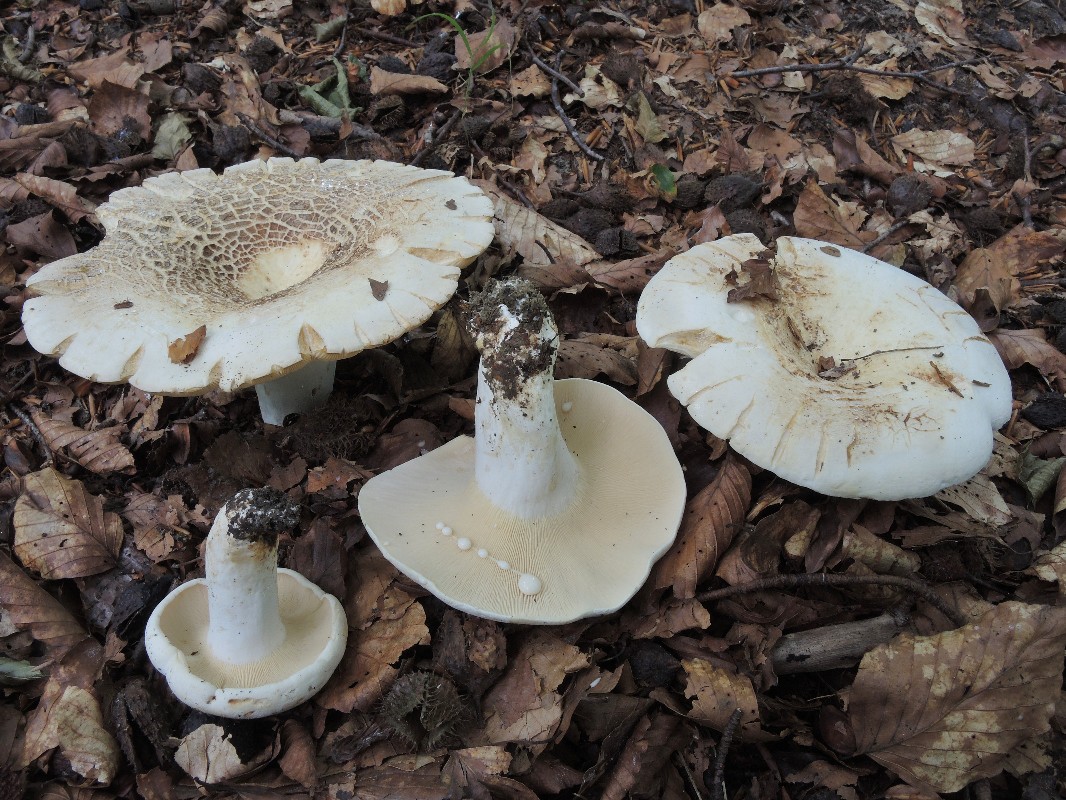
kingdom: Fungi
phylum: Basidiomycota
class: Agaricomycetes
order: Russulales
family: Russulaceae
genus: Lactifluus
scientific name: Lactifluus piperatus
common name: peber-mælkehat
